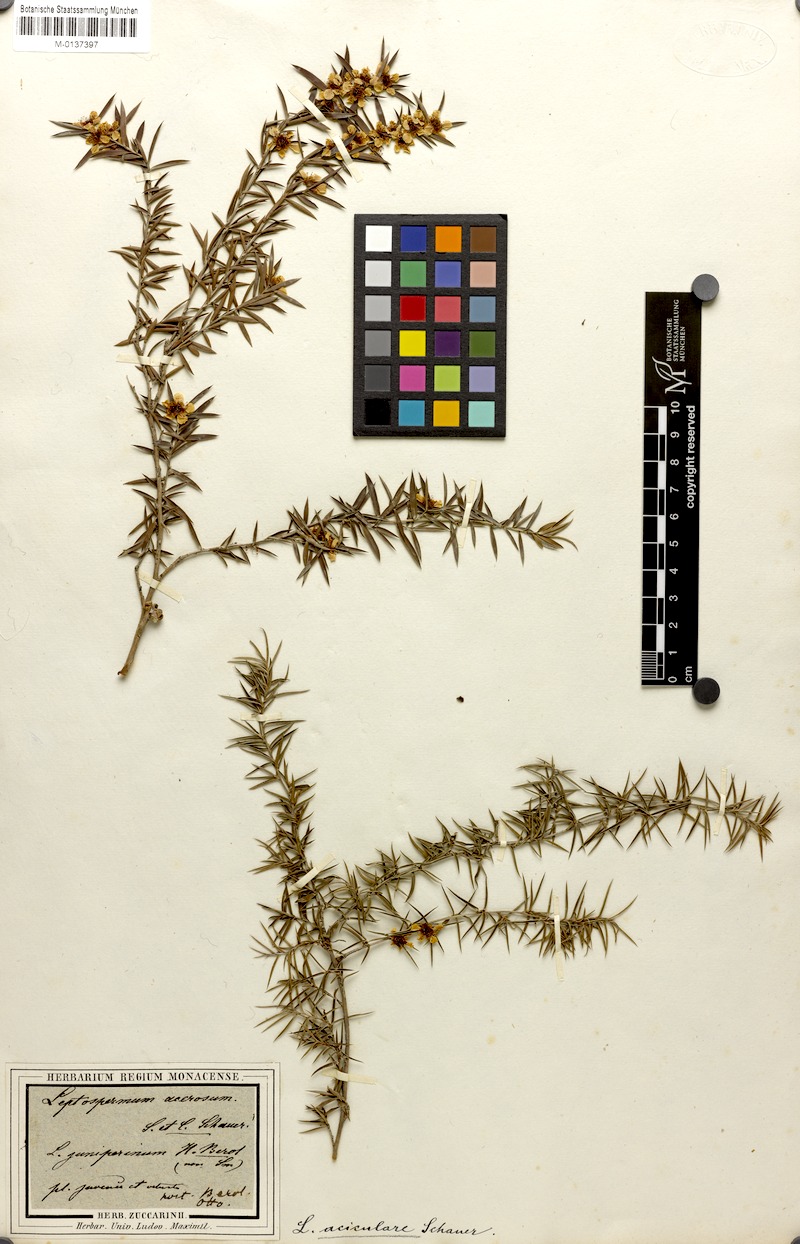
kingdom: Plantae
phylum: Tracheophyta
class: Magnoliopsida
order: Myrtales
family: Myrtaceae
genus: Leptospermum
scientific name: Leptospermum juniperinum
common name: Prickly teatree
